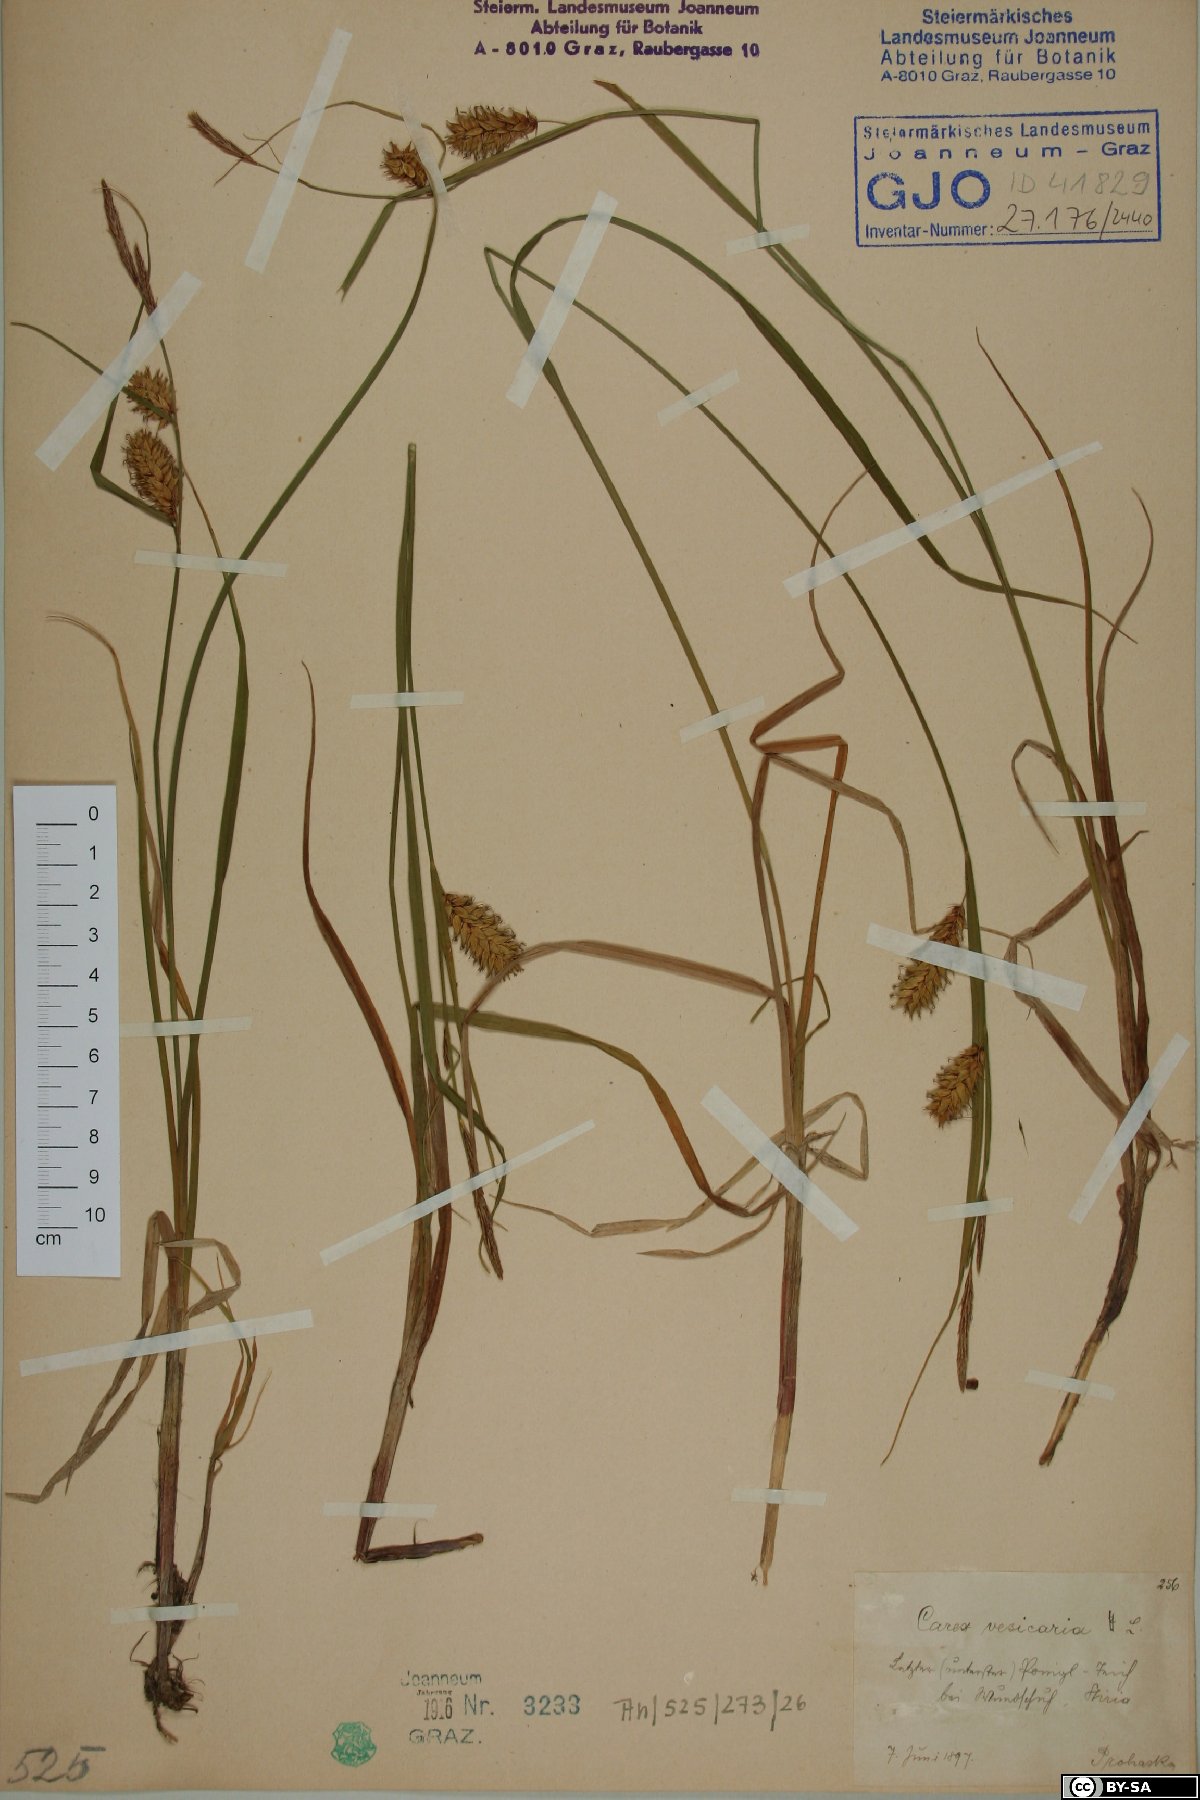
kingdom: Plantae
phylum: Tracheophyta
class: Liliopsida
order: Poales
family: Cyperaceae
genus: Carex
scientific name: Carex vesicaria
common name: Bladder-sedge
